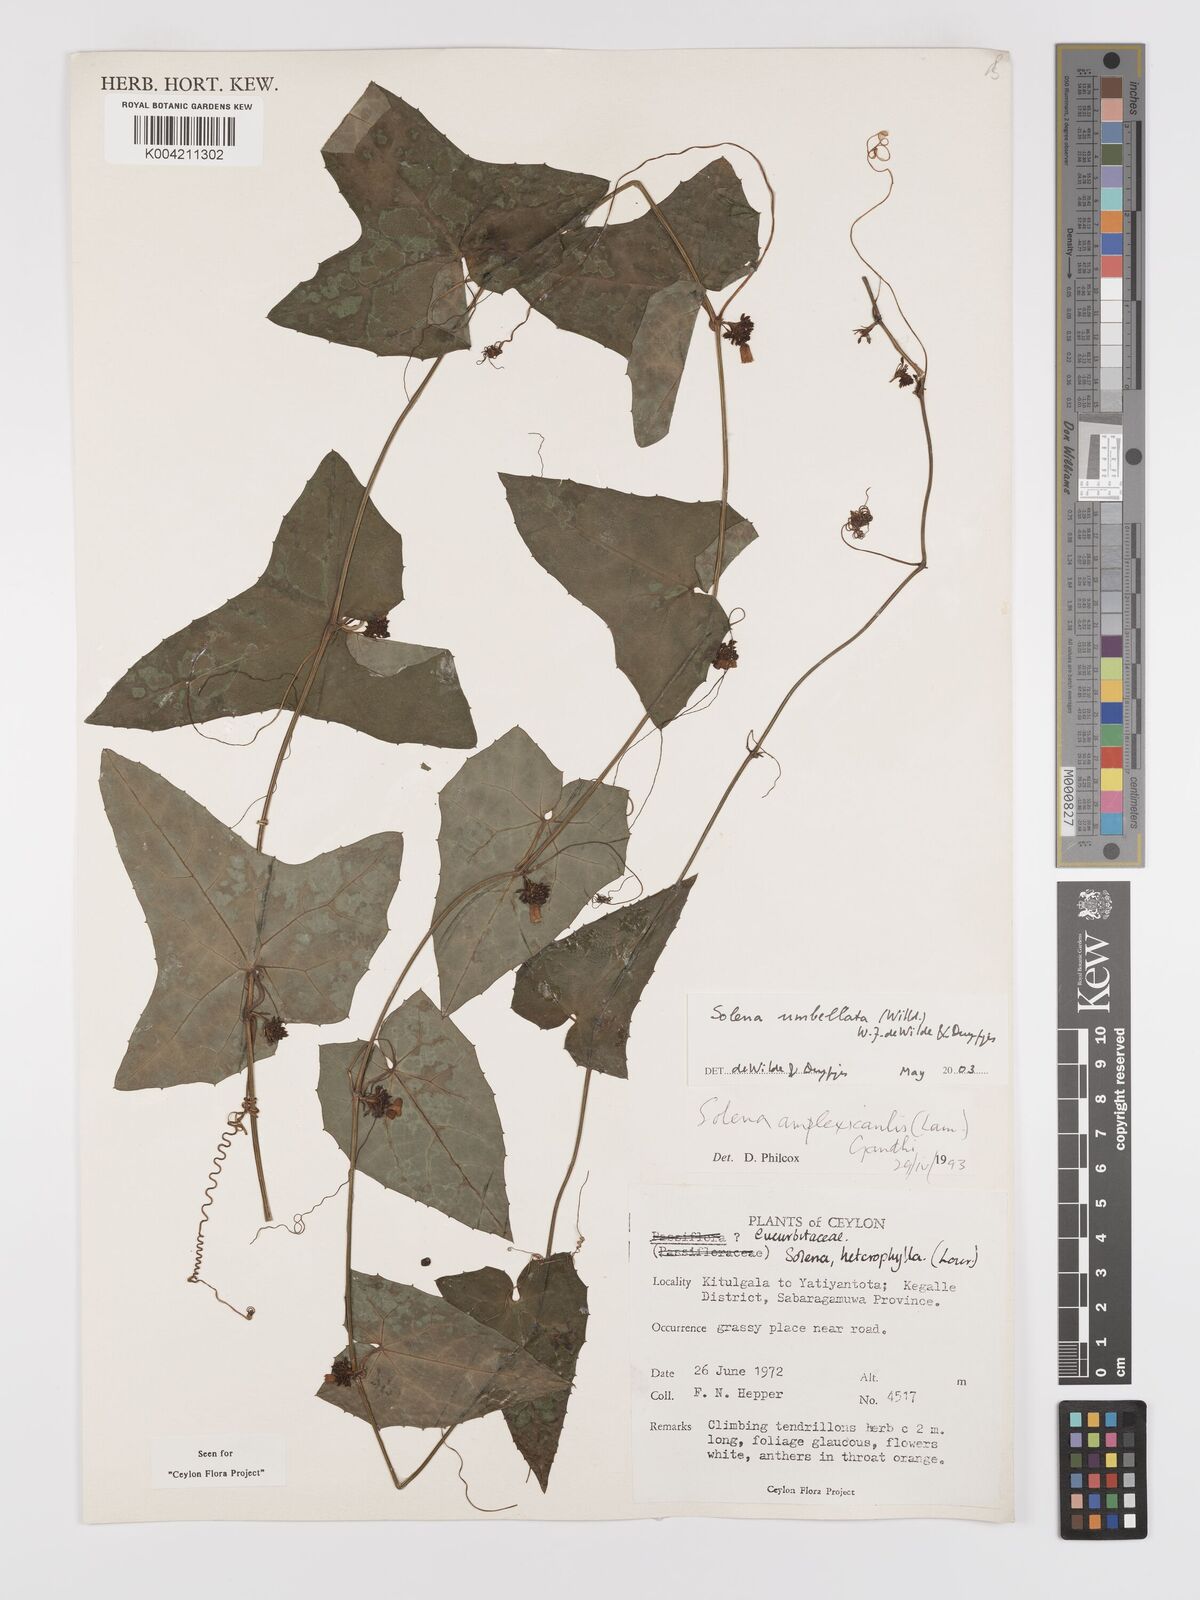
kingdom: Plantae
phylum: Tracheophyta
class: Magnoliopsida
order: Cucurbitales
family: Cucurbitaceae
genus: Solena
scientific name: Solena umbellata
